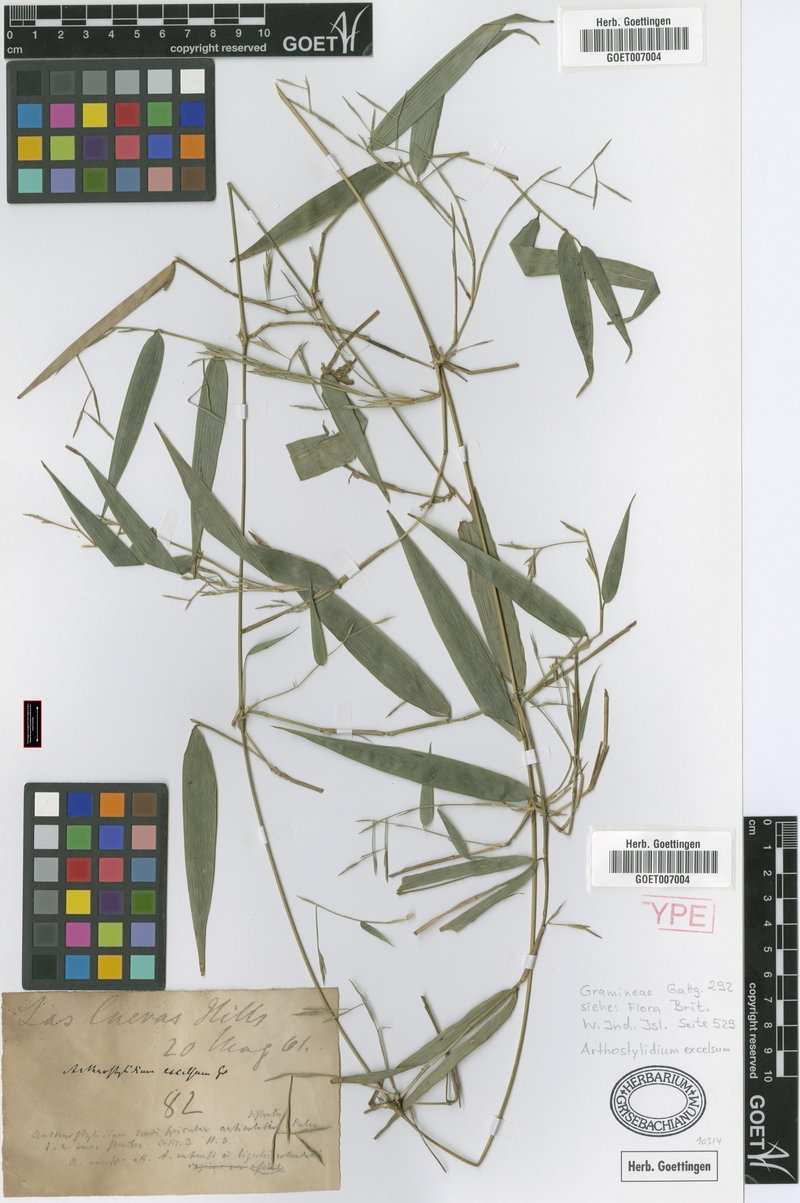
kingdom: Plantae
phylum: Tracheophyta
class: Liliopsida
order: Poales
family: Poaceae
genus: Arthrostylidium
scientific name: Arthrostylidium excelsum
